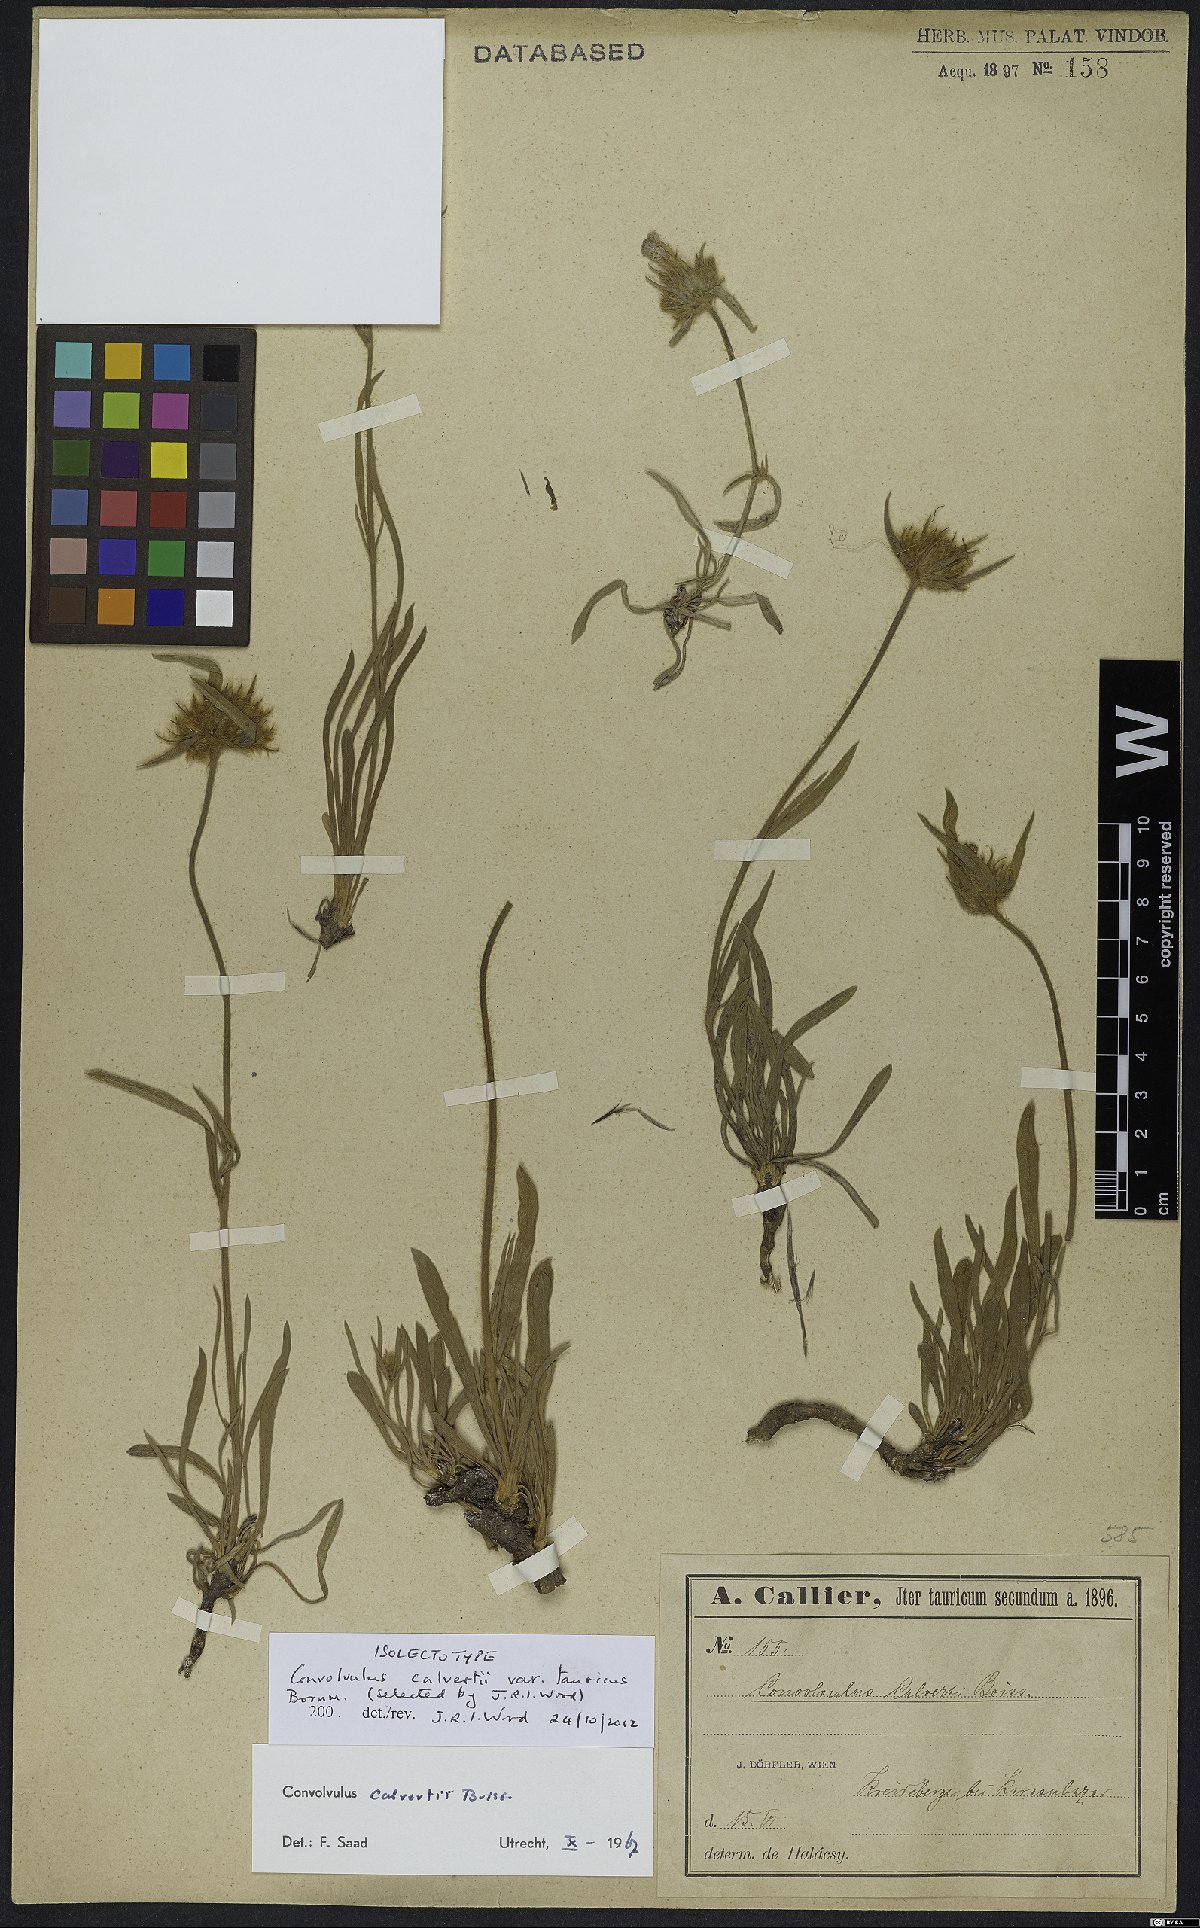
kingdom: Plantae
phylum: Tracheophyta
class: Magnoliopsida
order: Solanales
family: Convolvulaceae
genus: Convolvulus
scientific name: Convolvulus calvertii
